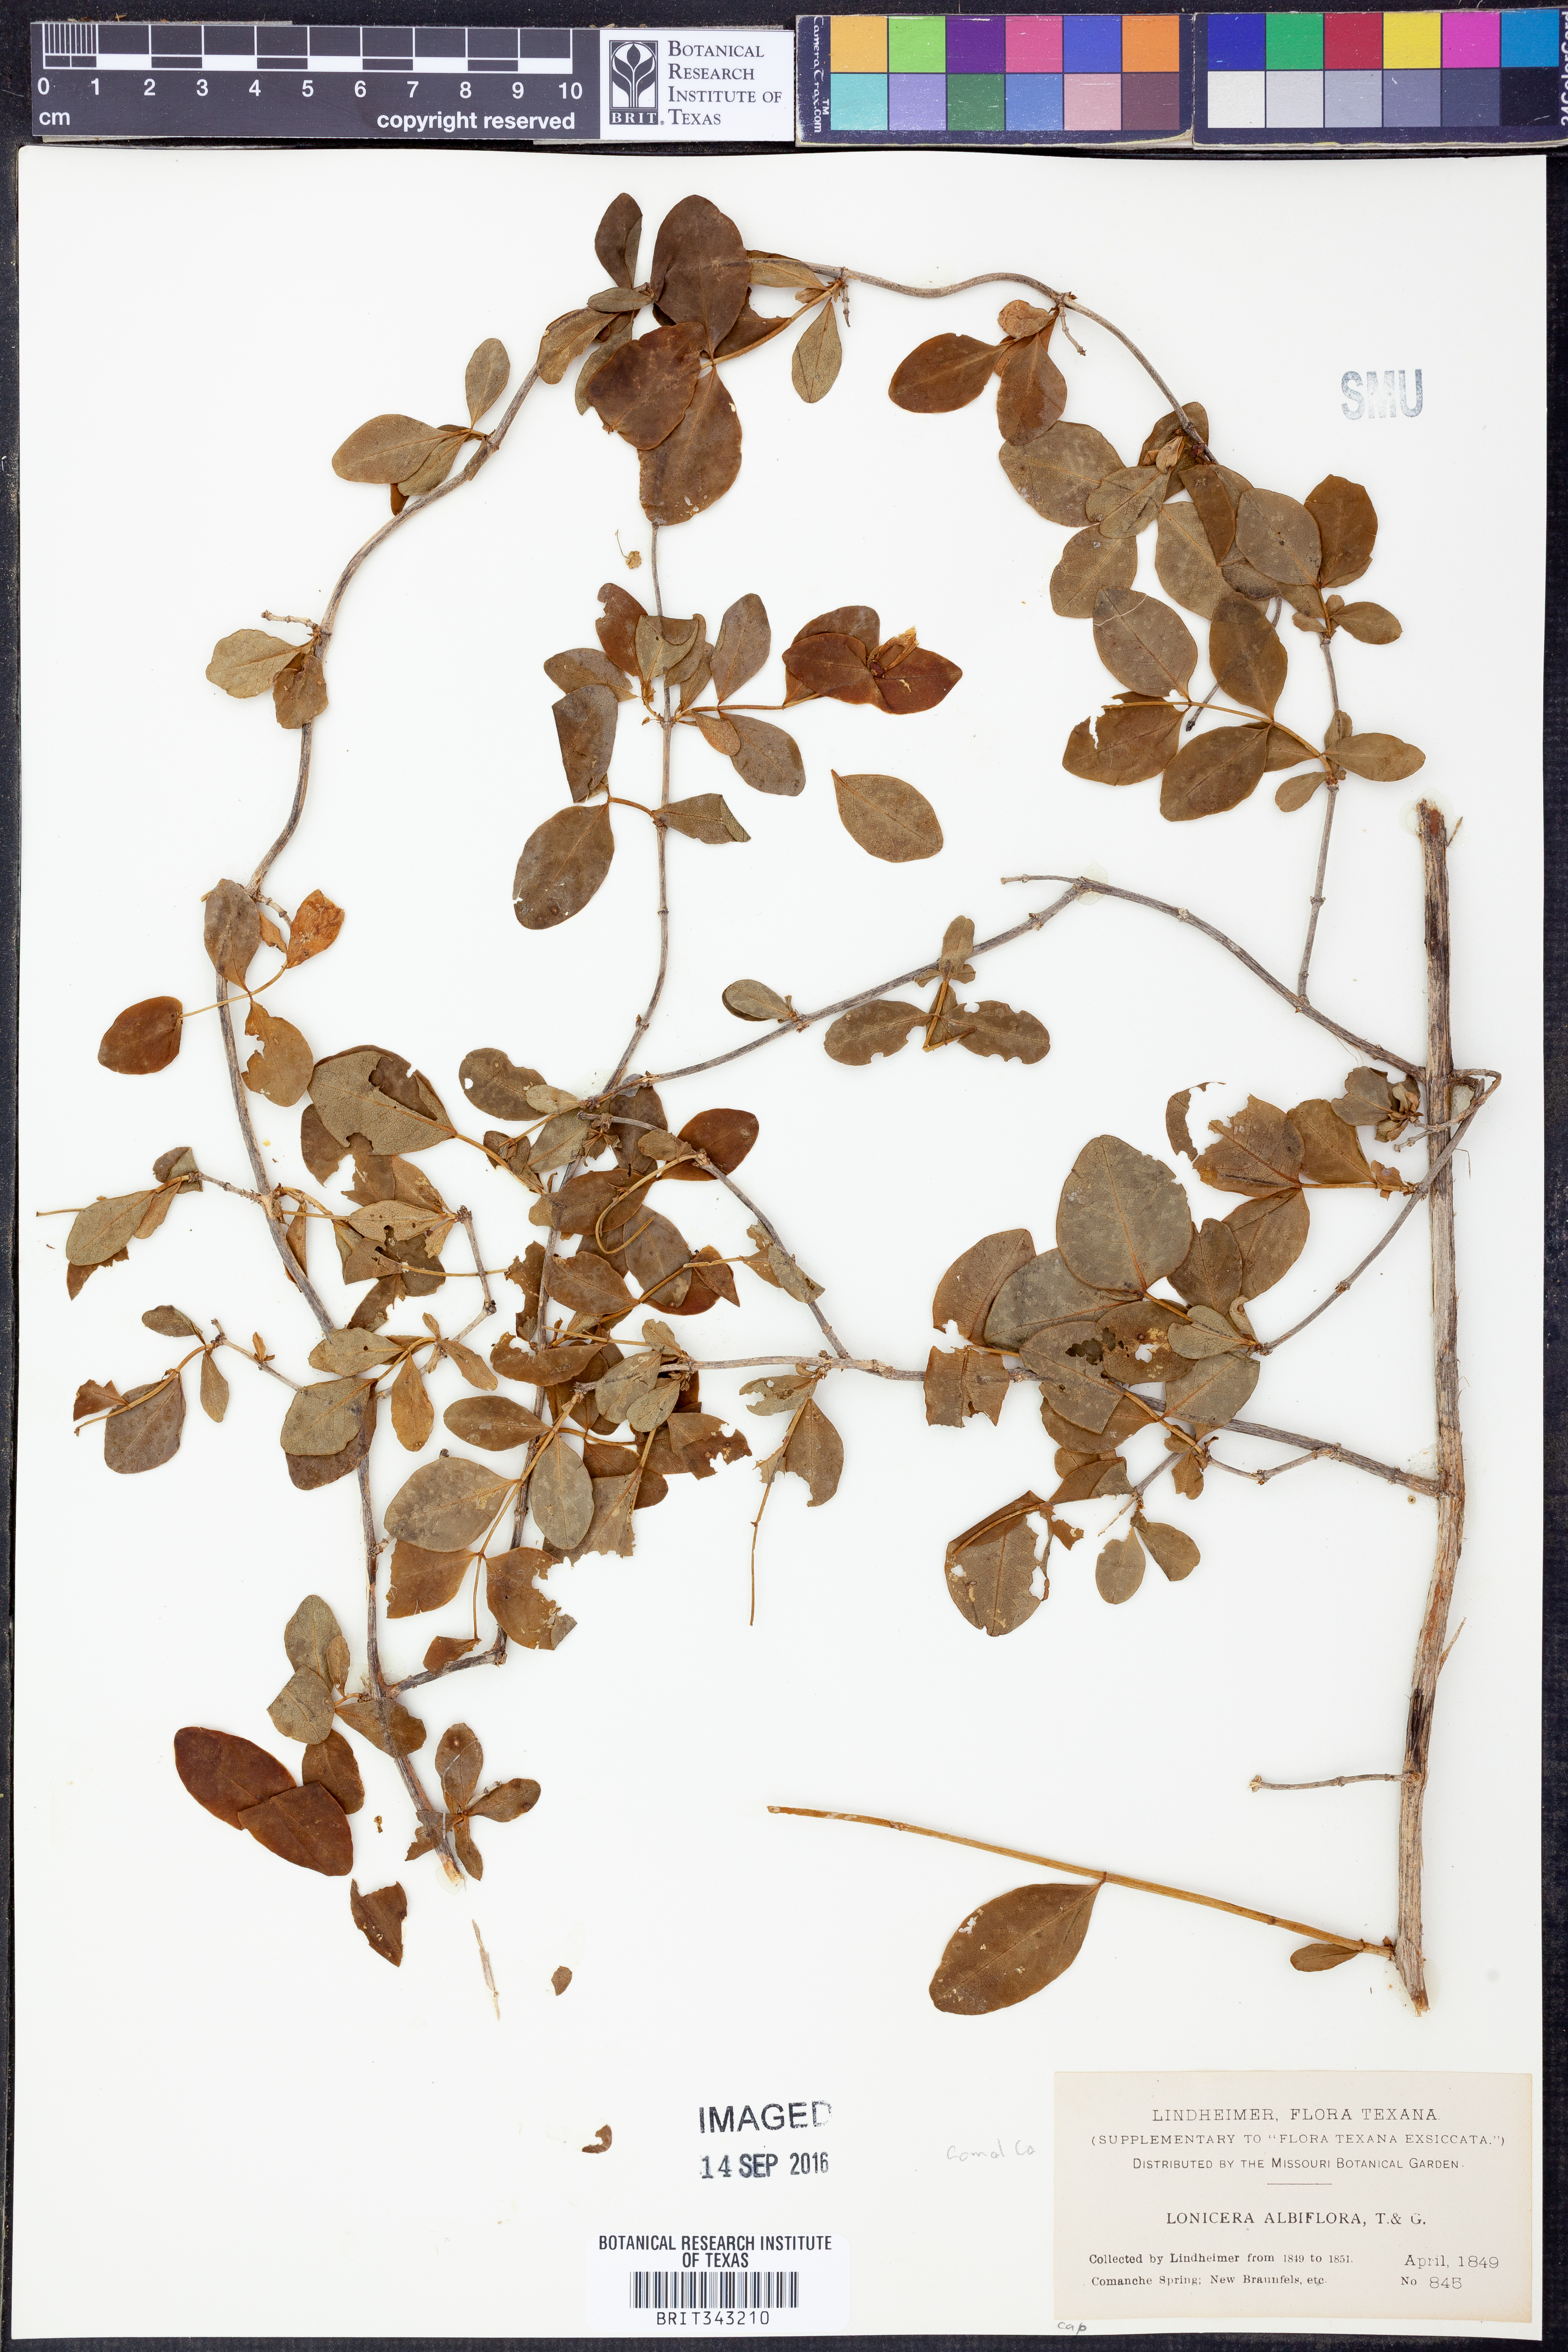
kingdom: Plantae
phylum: Tracheophyta
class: Magnoliopsida
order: Dipsacales
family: Caprifoliaceae
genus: Lonicera
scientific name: Lonicera albiflora
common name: White honeysuckle
